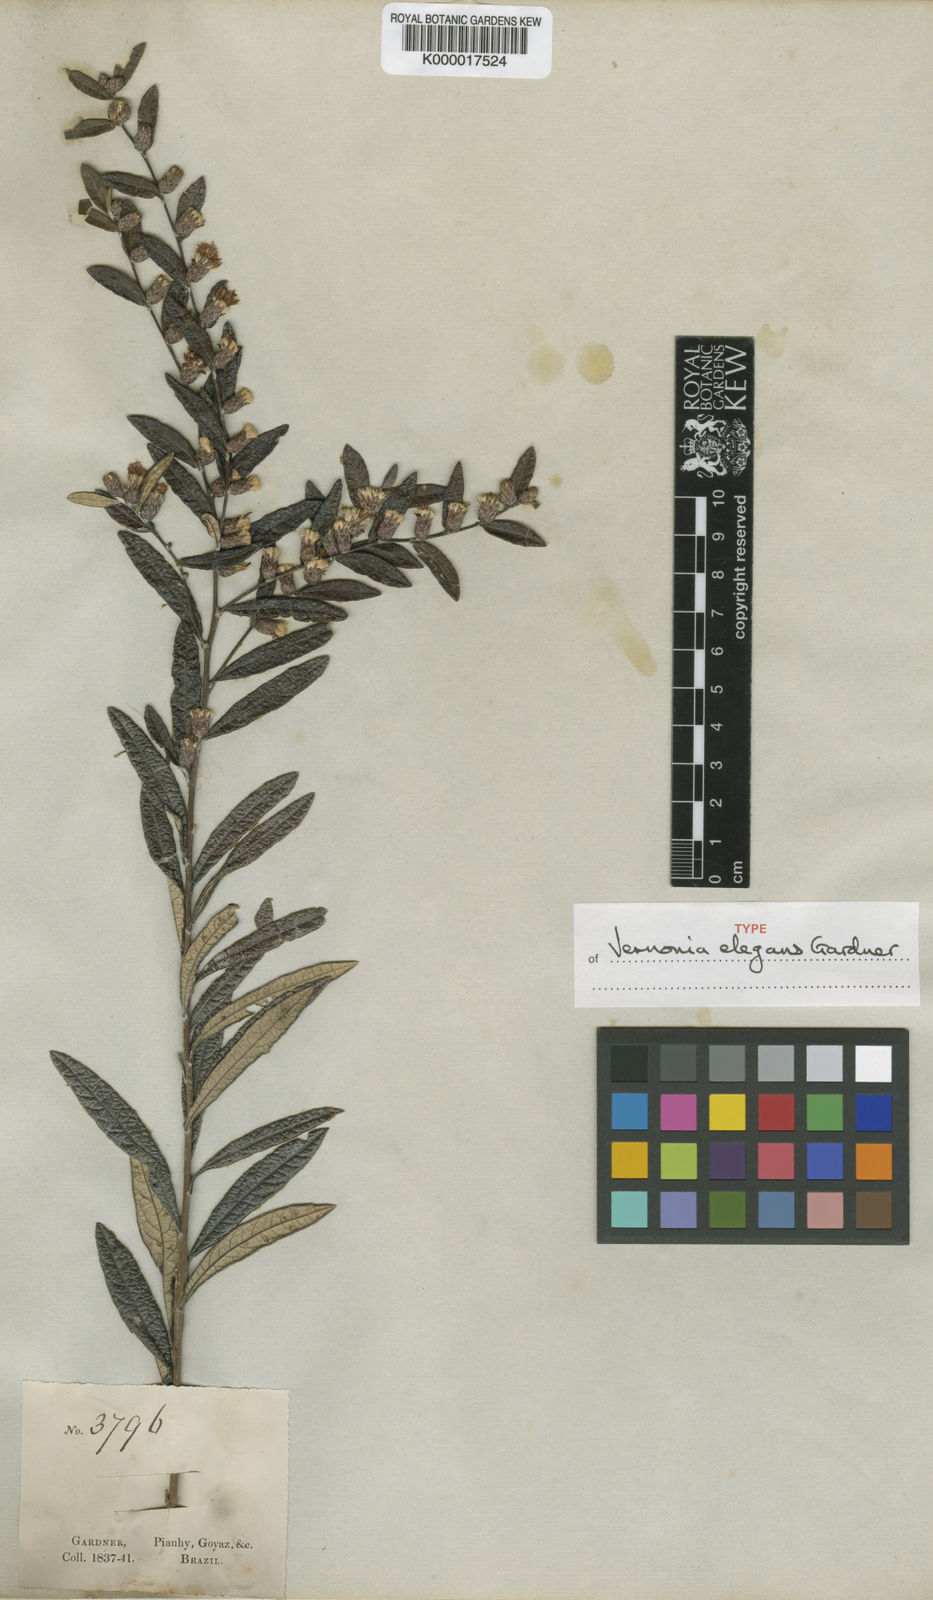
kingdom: Plantae
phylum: Tracheophyta
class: Magnoliopsida
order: Asterales
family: Asteraceae
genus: Lessingianthus
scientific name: Lessingianthus elegans
